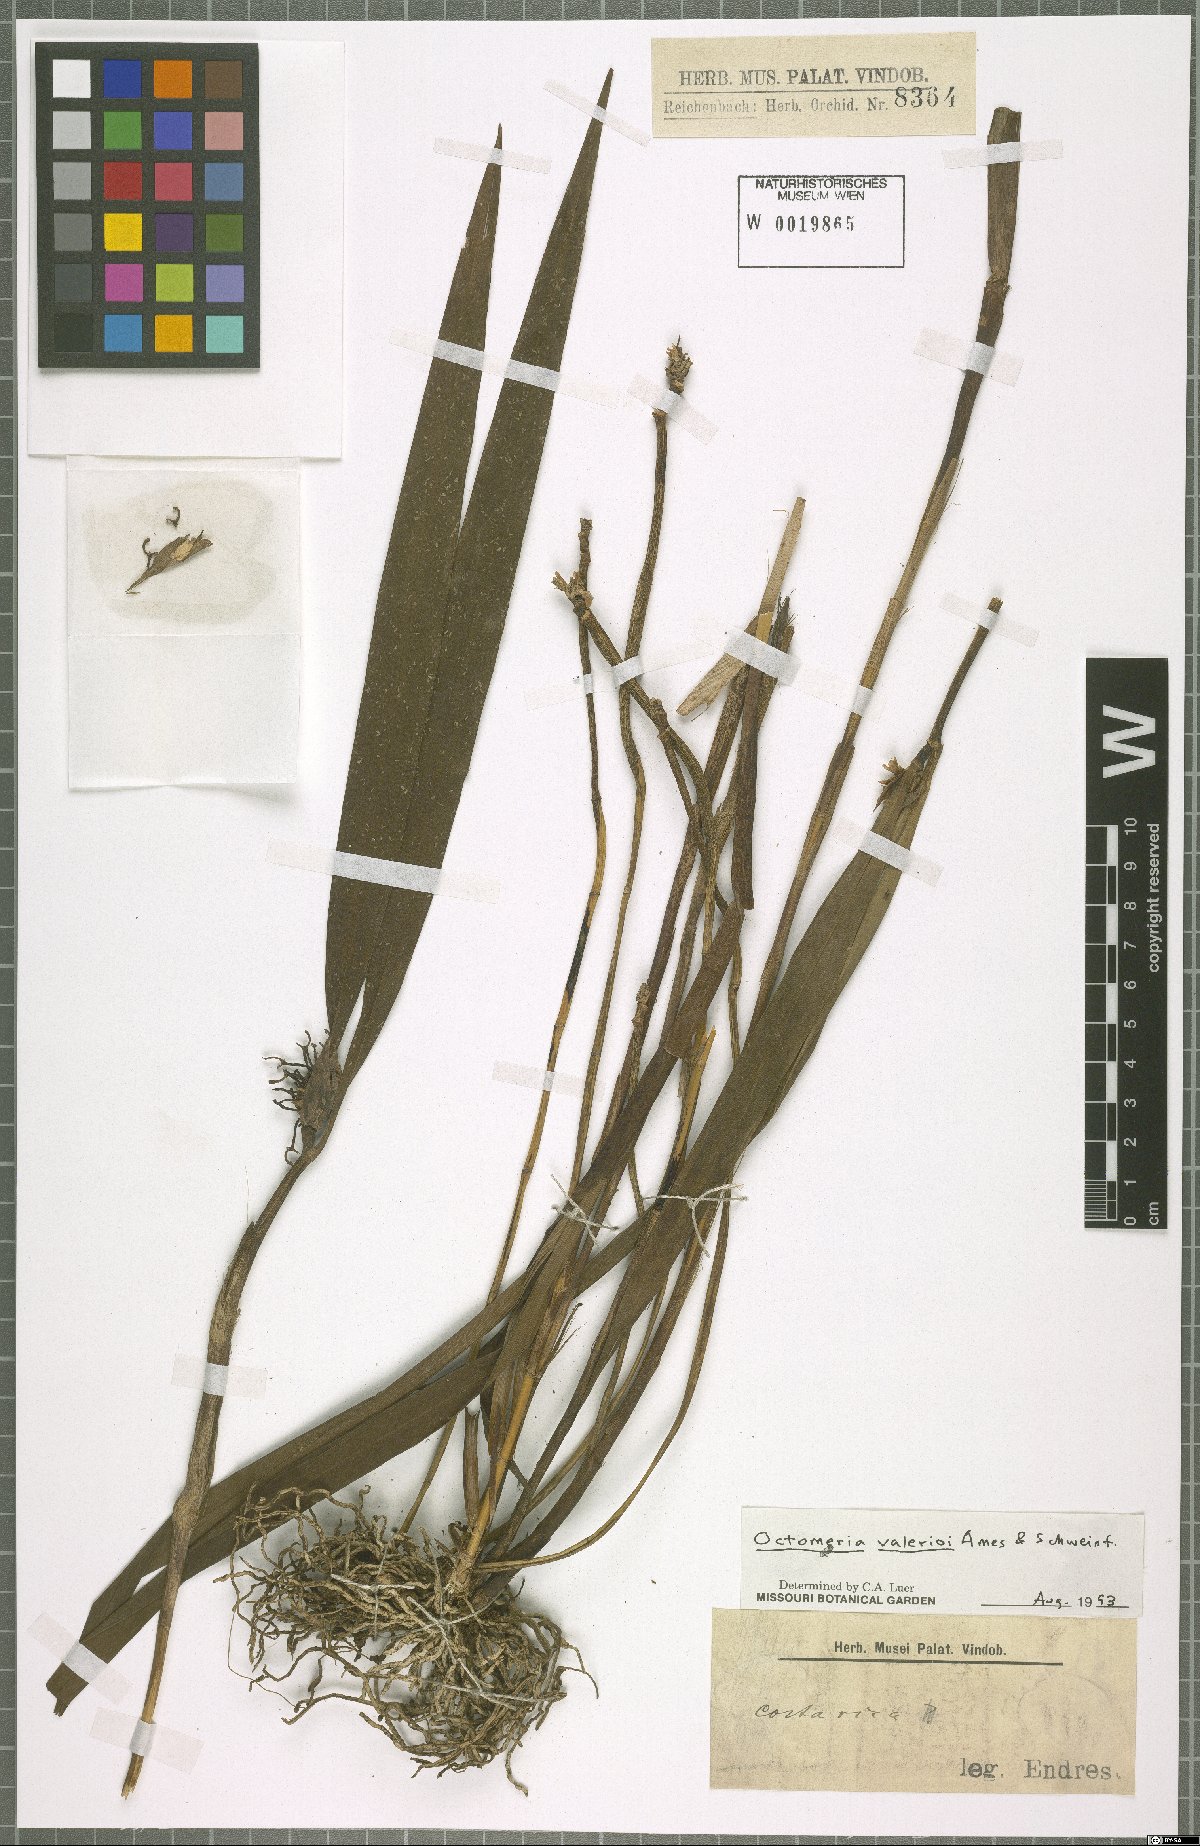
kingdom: Plantae
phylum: Tracheophyta
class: Liliopsida
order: Asparagales
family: Orchidaceae
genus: Octomeria
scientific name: Octomeria costaricensis
